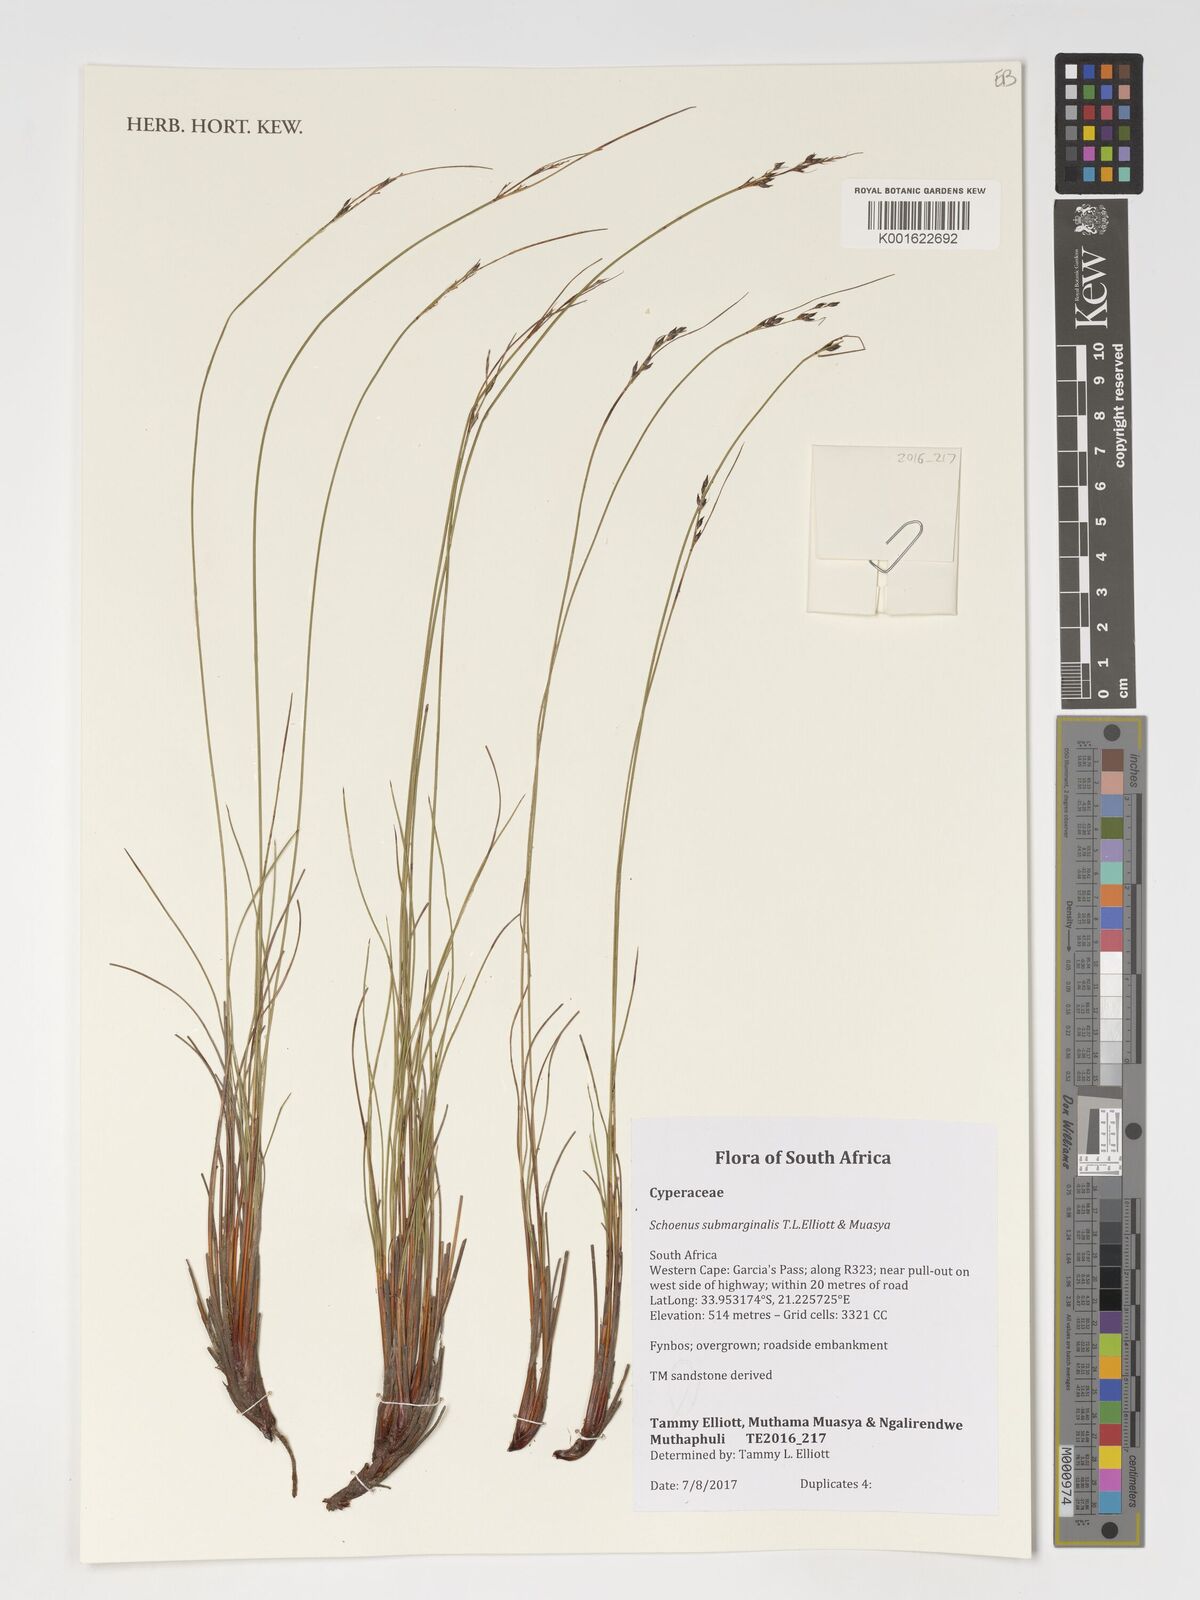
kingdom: Plantae
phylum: Tracheophyta
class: Liliopsida
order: Poales
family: Cyperaceae
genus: Schoenus
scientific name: Schoenus submarginalis
